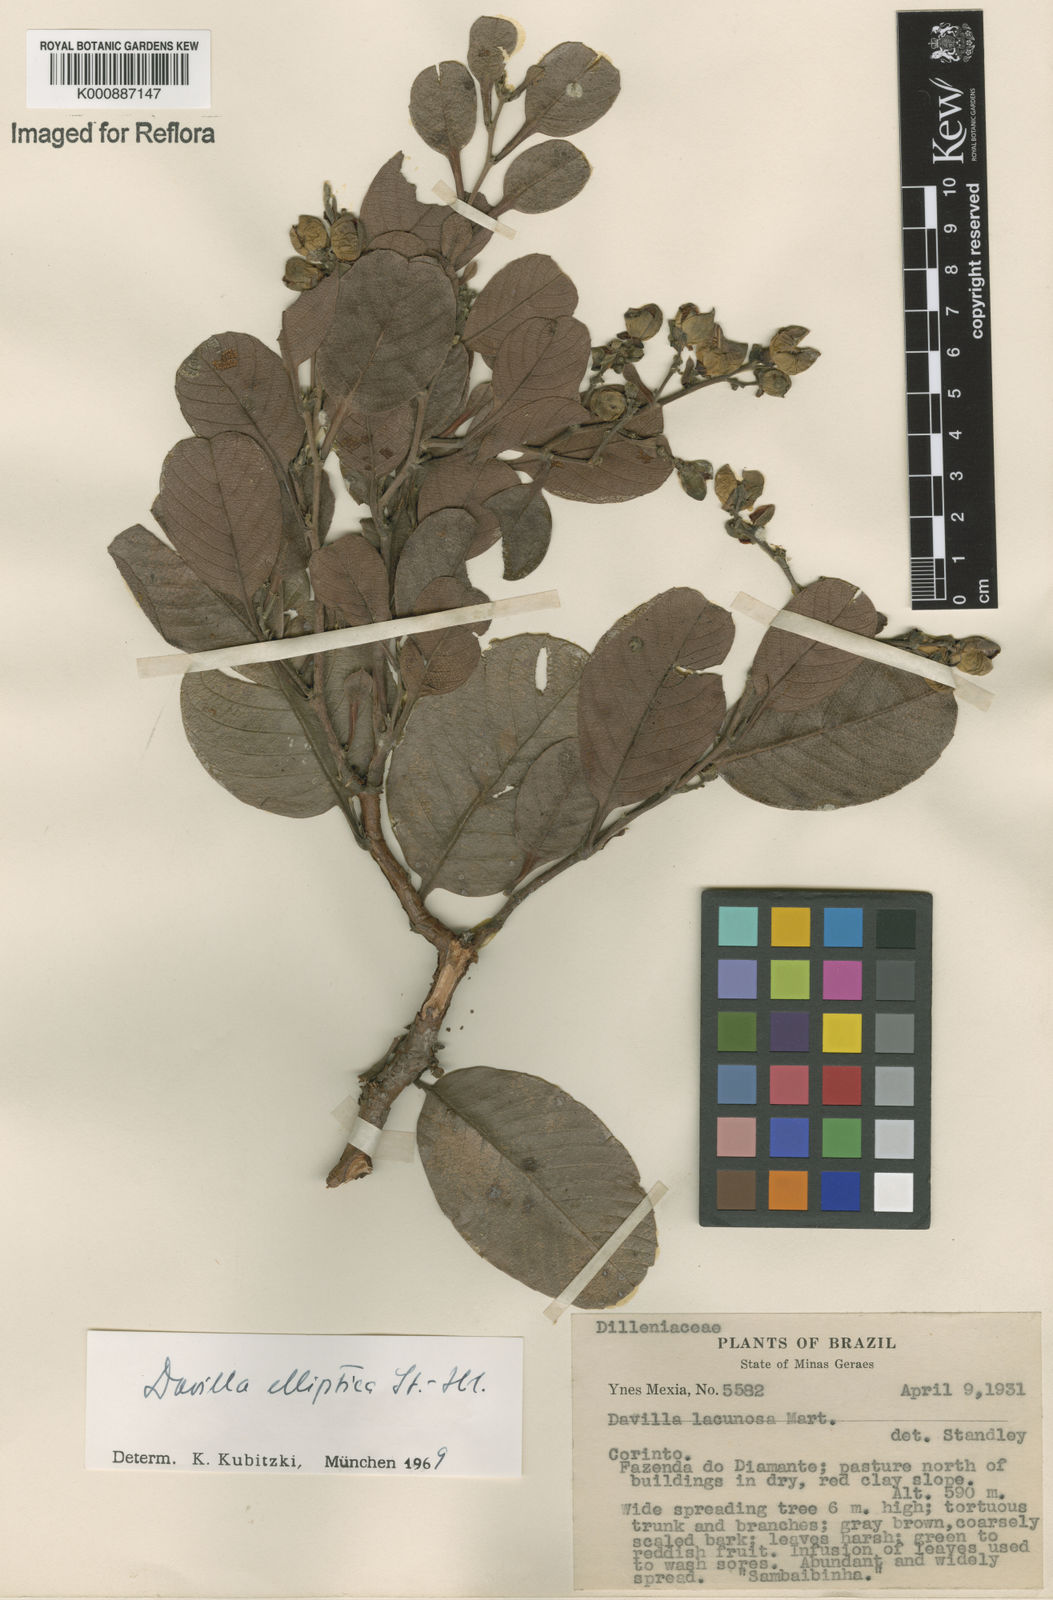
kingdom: Plantae
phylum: Tracheophyta
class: Magnoliopsida
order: Dilleniales
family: Dilleniaceae
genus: Davilla
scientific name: Davilla elliptica
